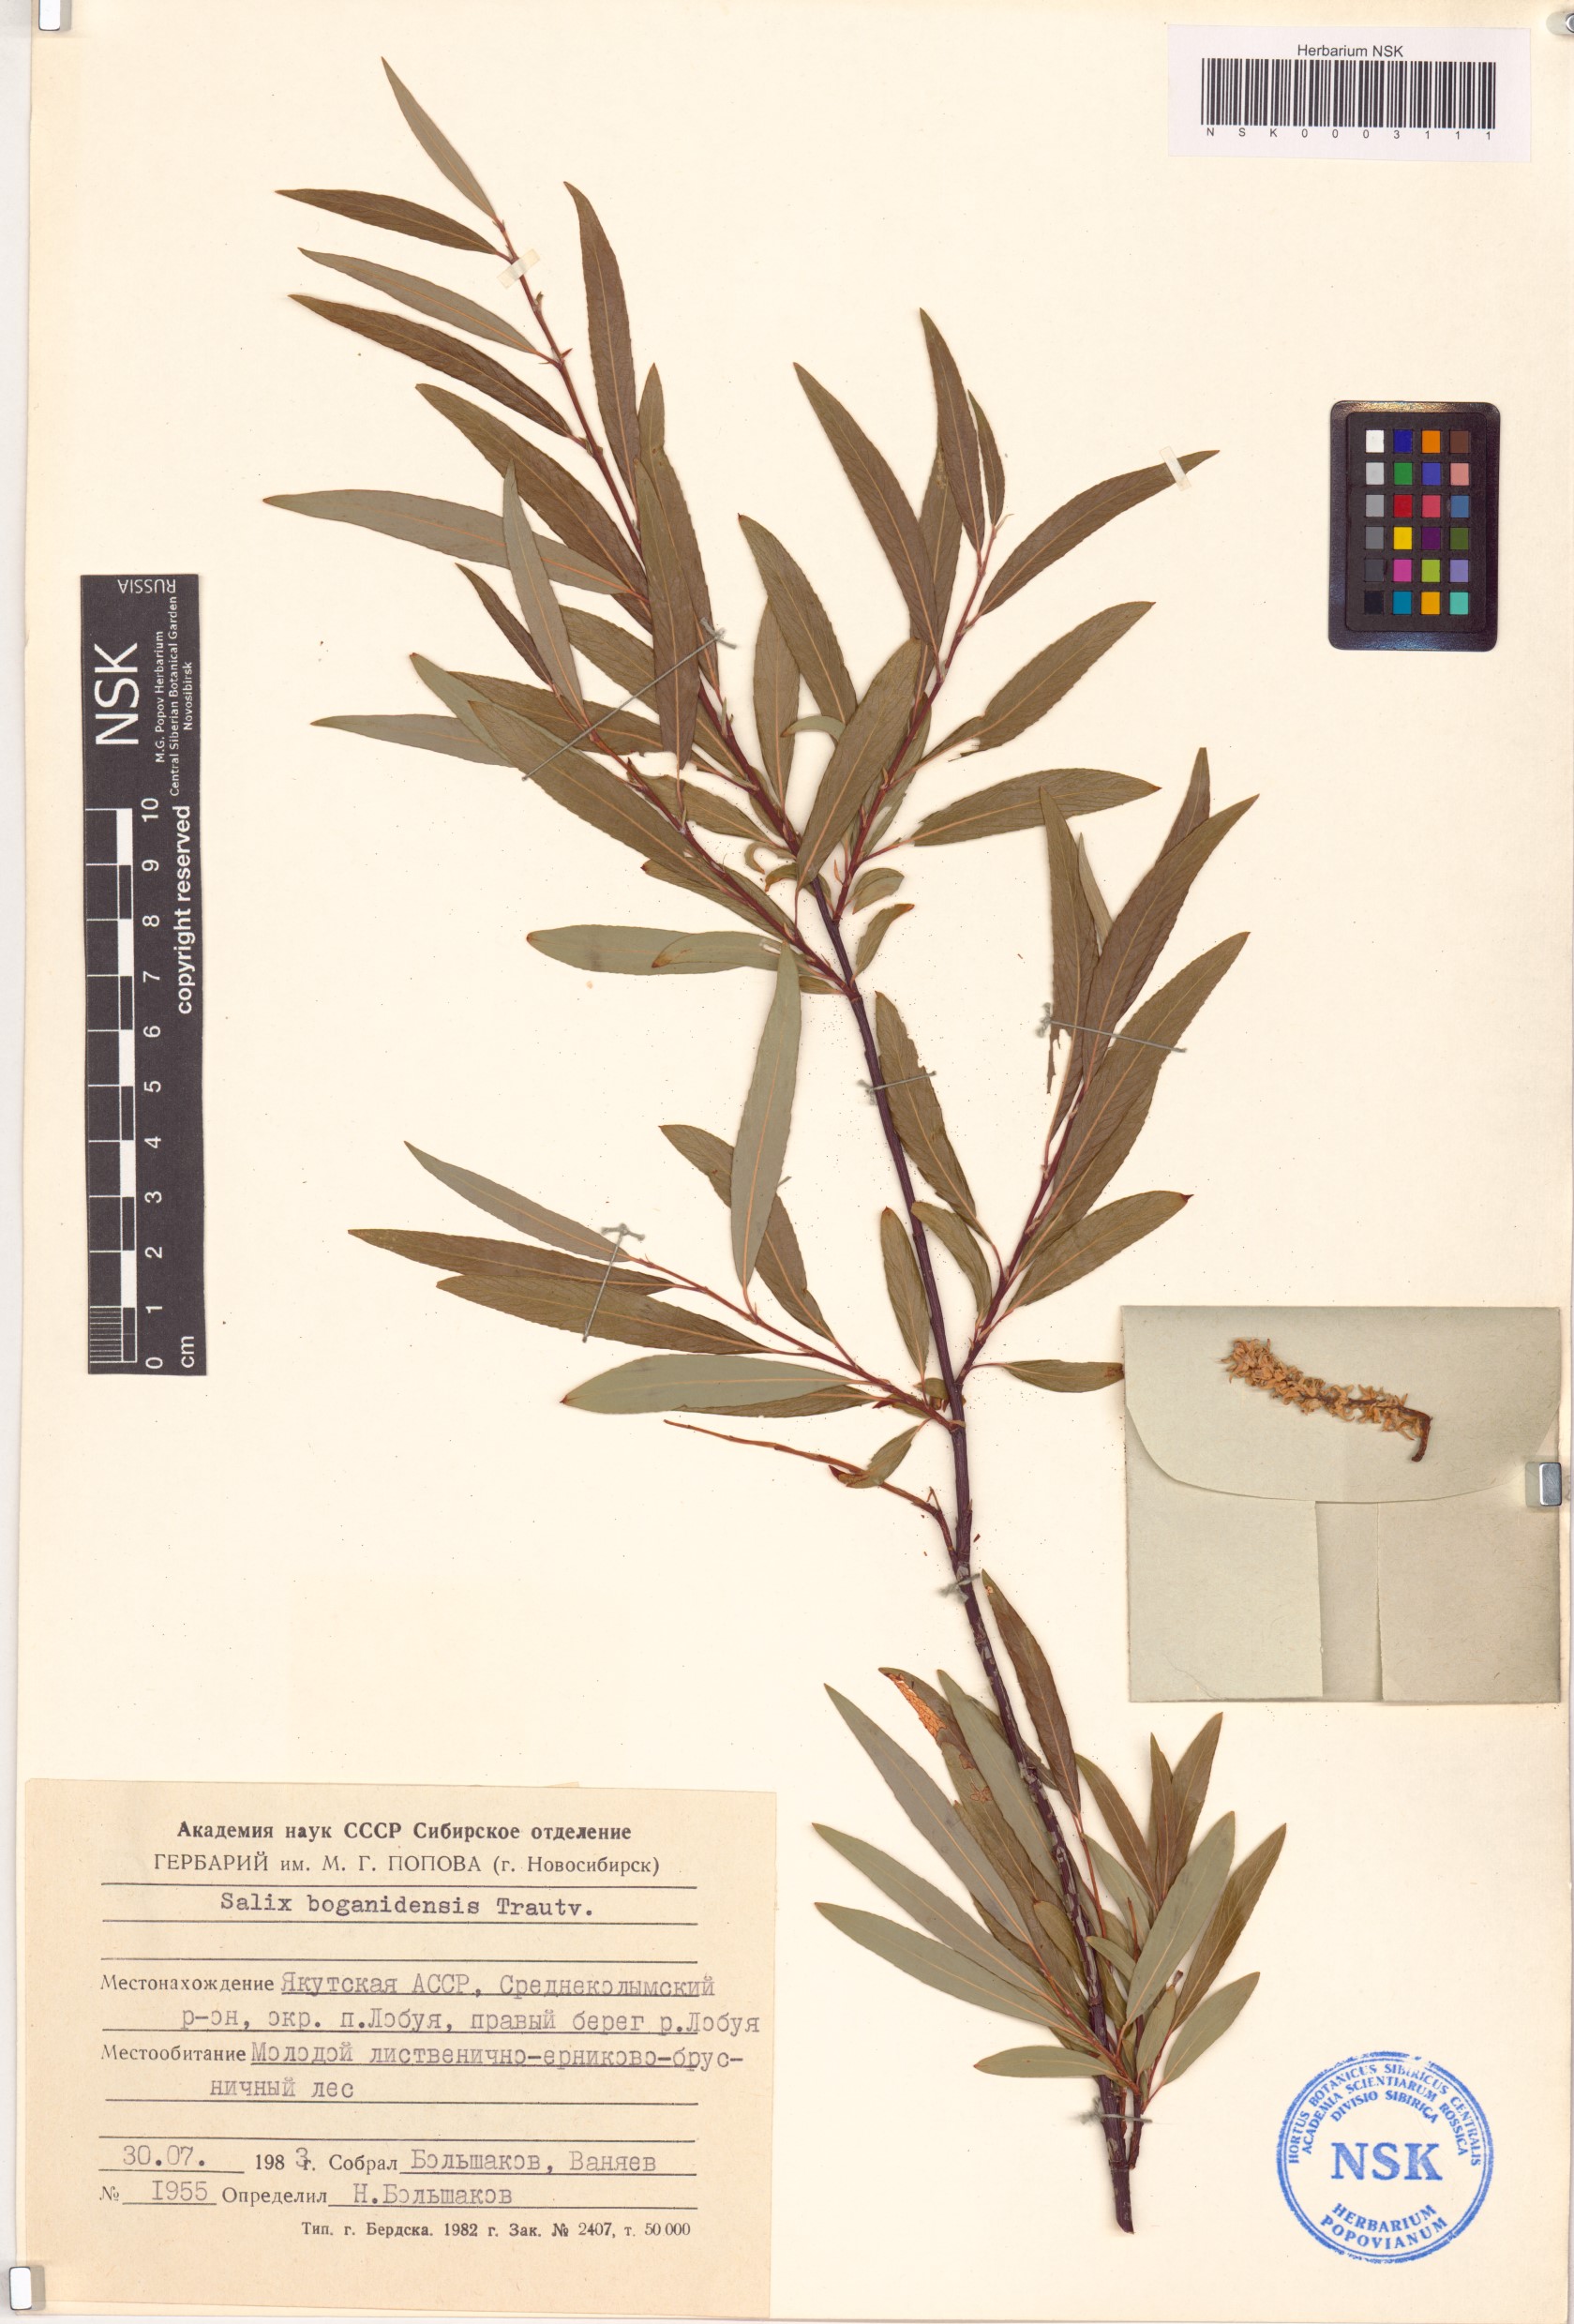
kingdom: Plantae
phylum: Tracheophyta
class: Magnoliopsida
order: Malpighiales
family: Salicaceae
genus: Salix
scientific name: Salix boganidensis
